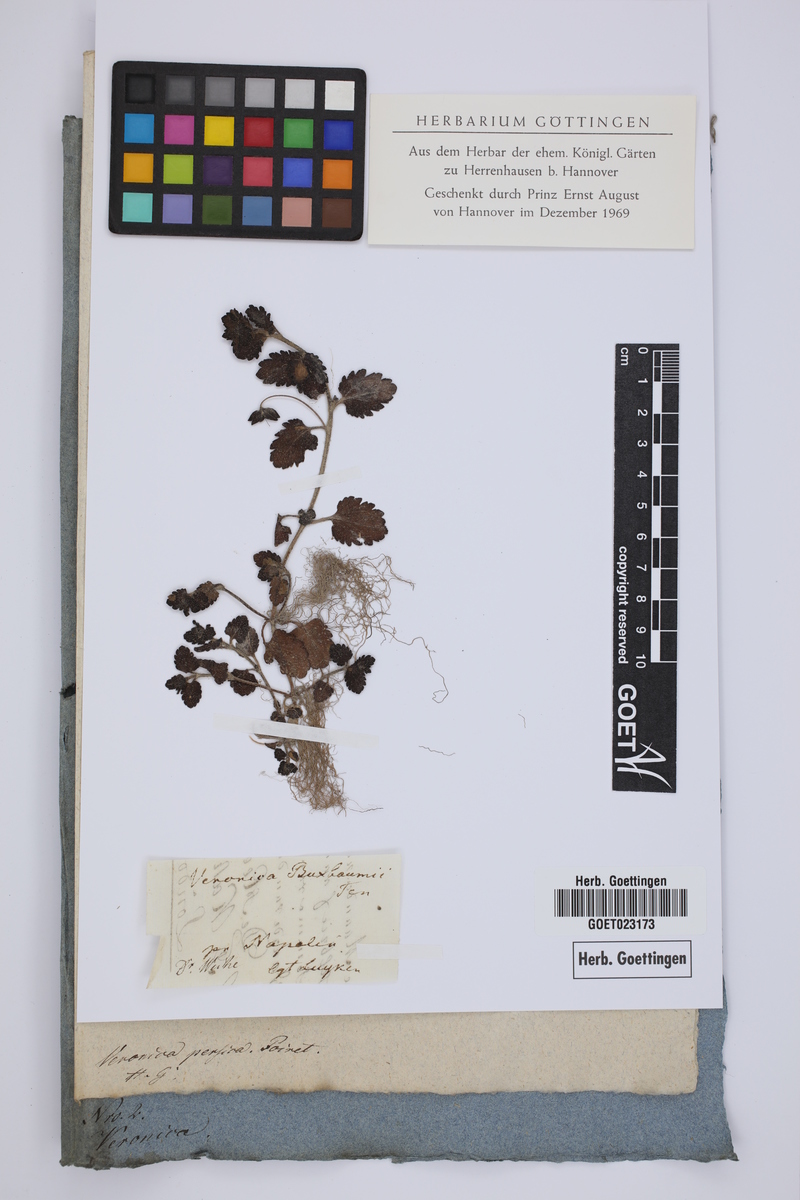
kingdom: Plantae
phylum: Tracheophyta
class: Magnoliopsida
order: Lamiales
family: Plantaginaceae
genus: Veronica
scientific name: Veronica persica
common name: Common field-speedwell
